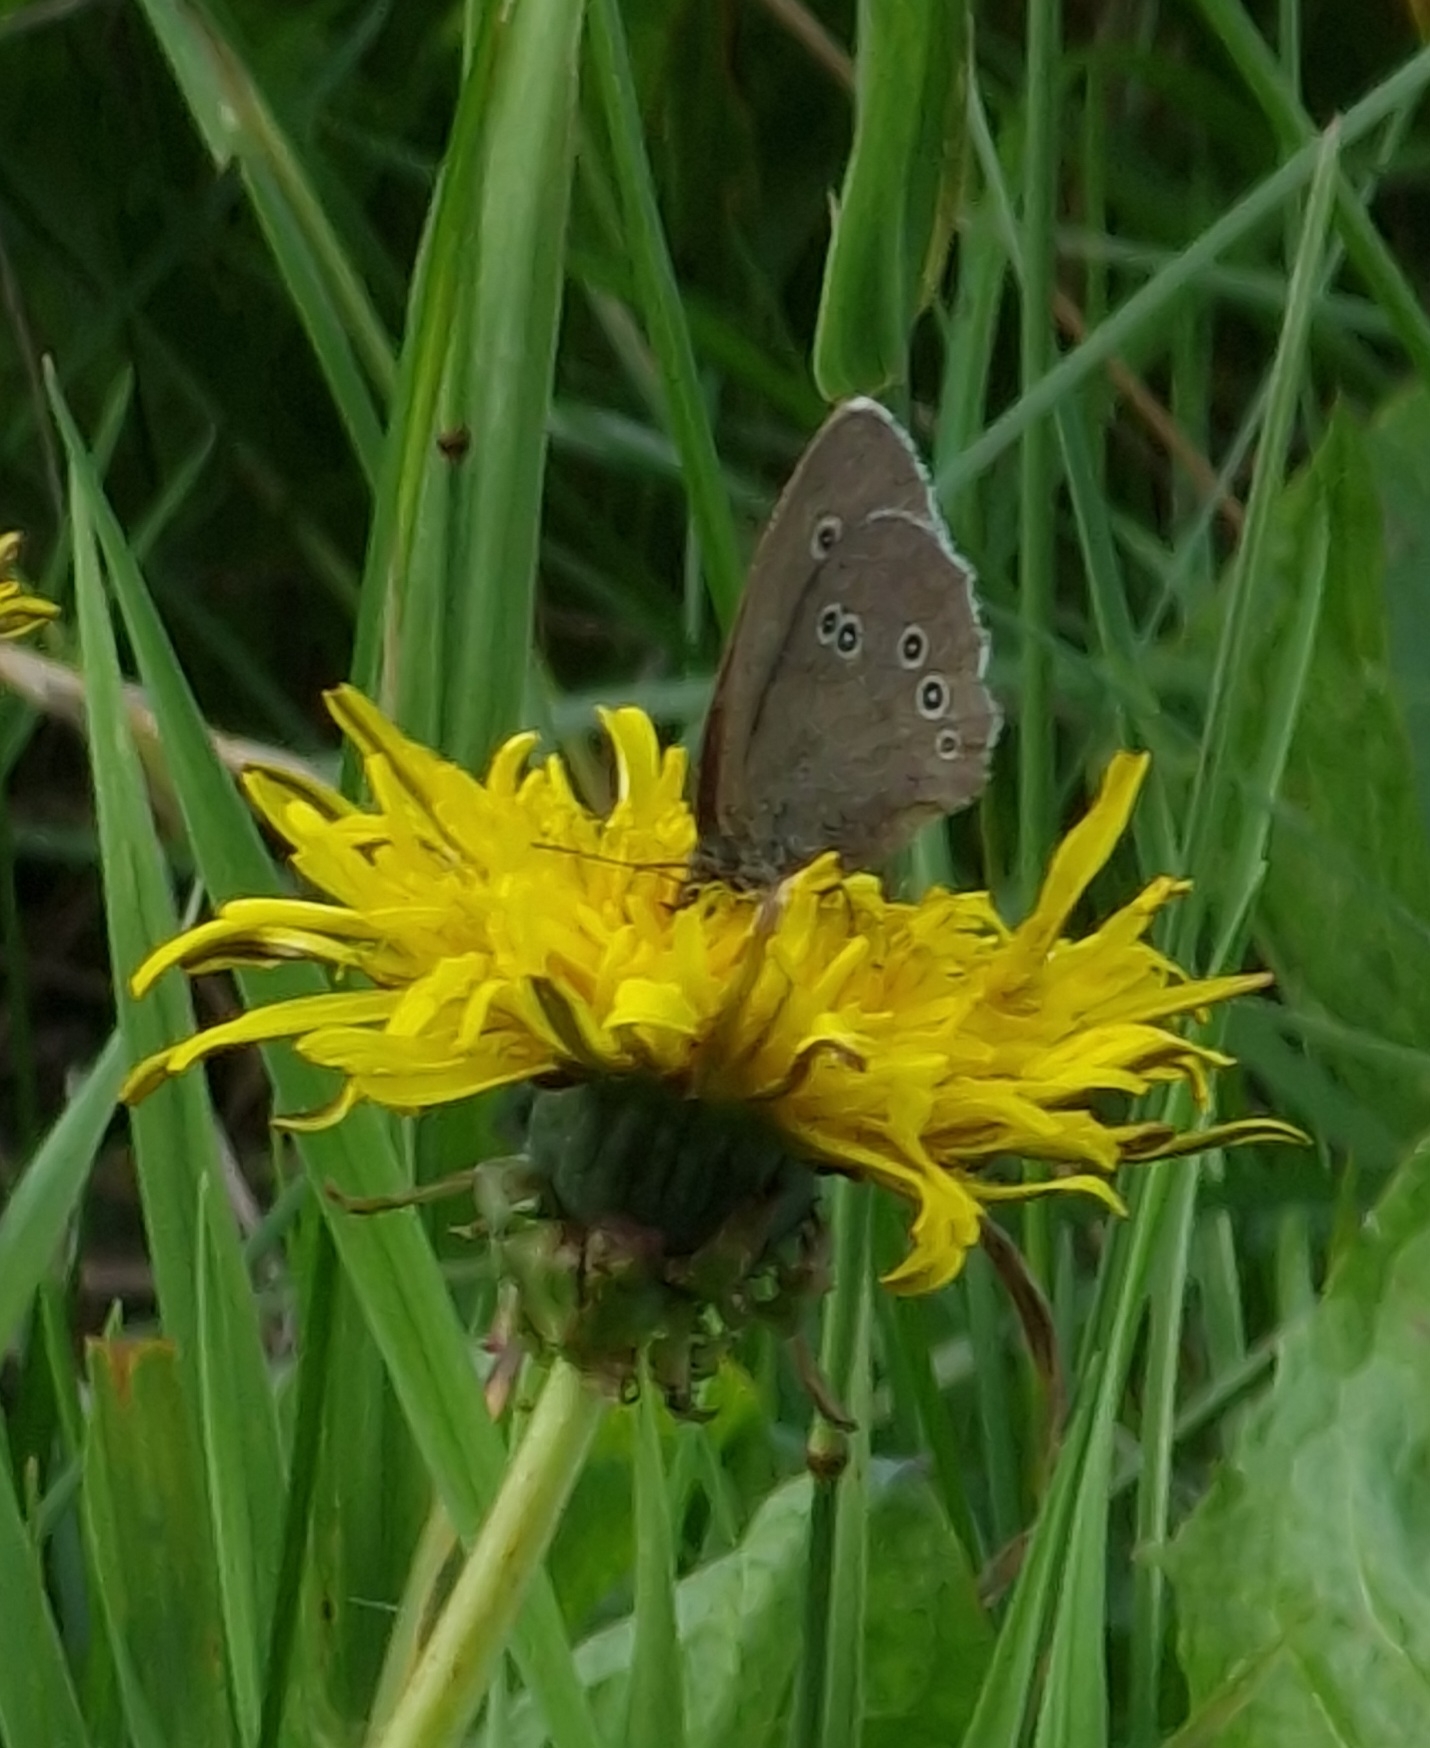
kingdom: Animalia
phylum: Arthropoda
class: Insecta
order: Lepidoptera
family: Nymphalidae
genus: Aphantopus
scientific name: Aphantopus hyperantus
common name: Engrandøje
